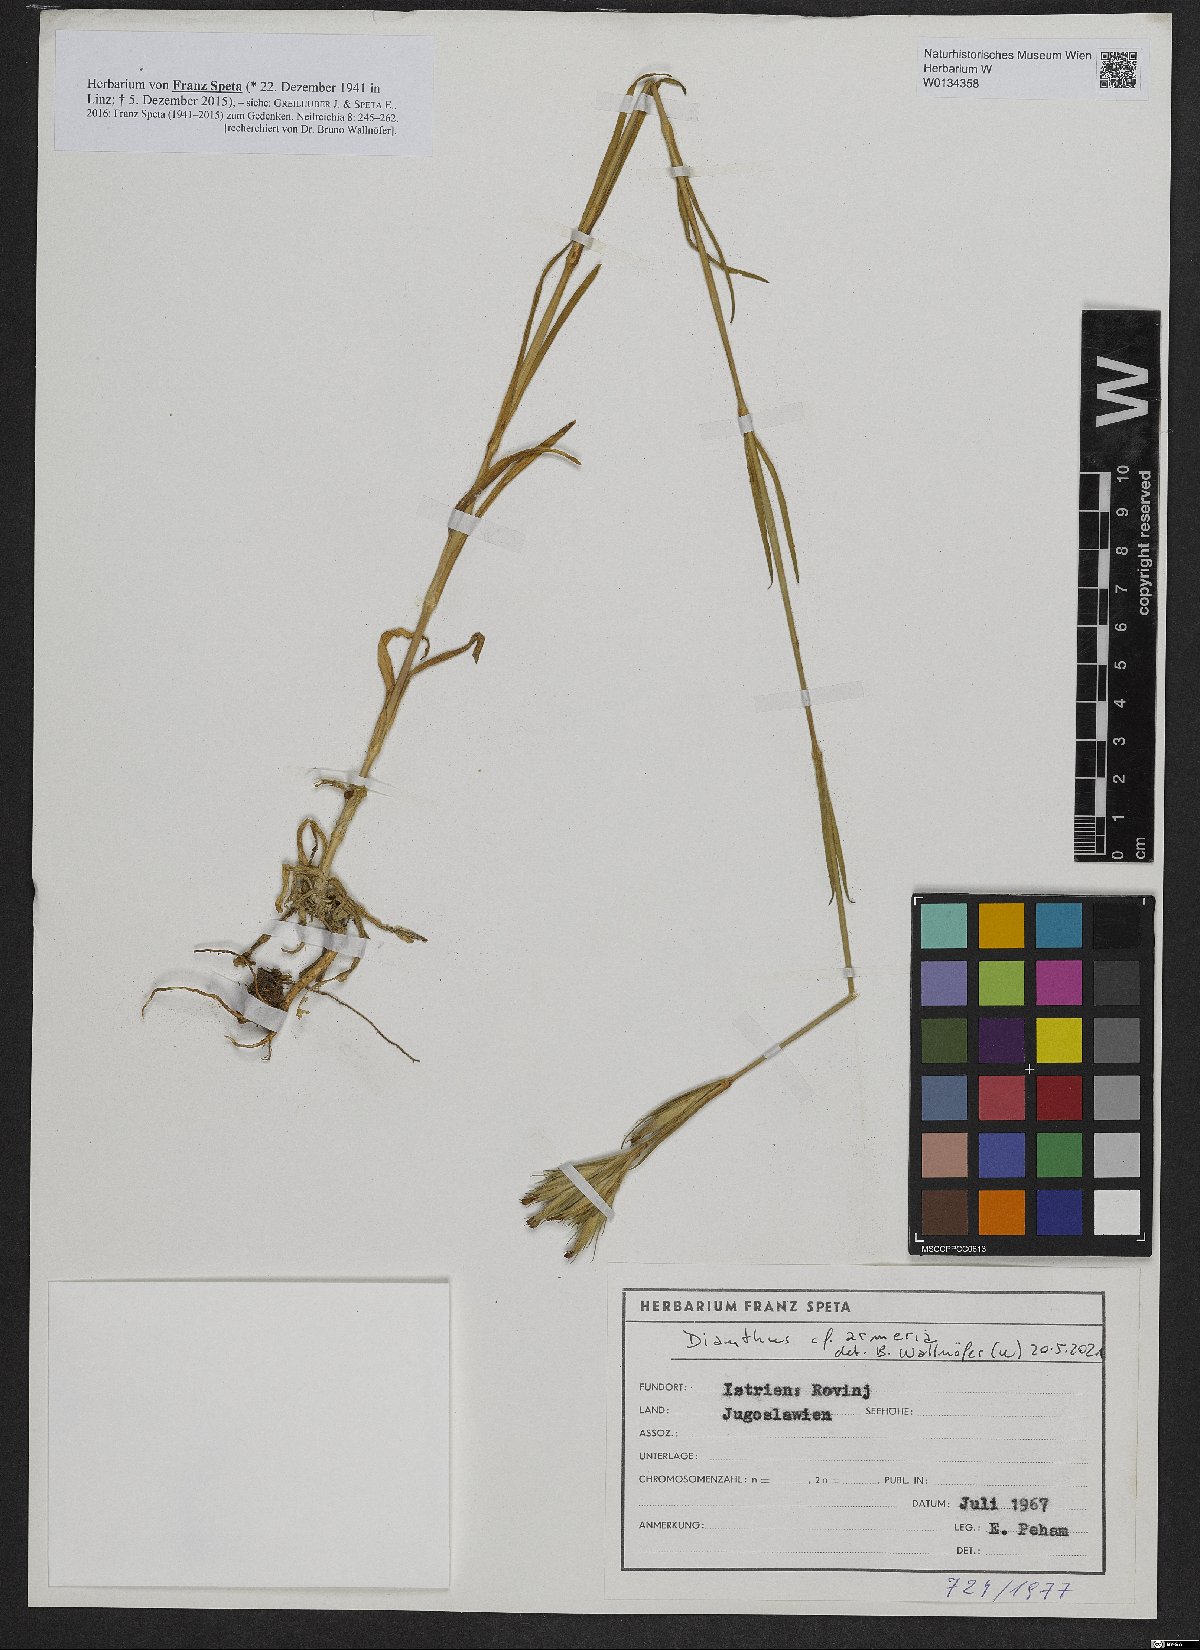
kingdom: Plantae
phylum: Tracheophyta
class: Magnoliopsida
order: Caryophyllales
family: Caryophyllaceae
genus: Dianthus
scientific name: Dianthus armeria
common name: Deptford pink
